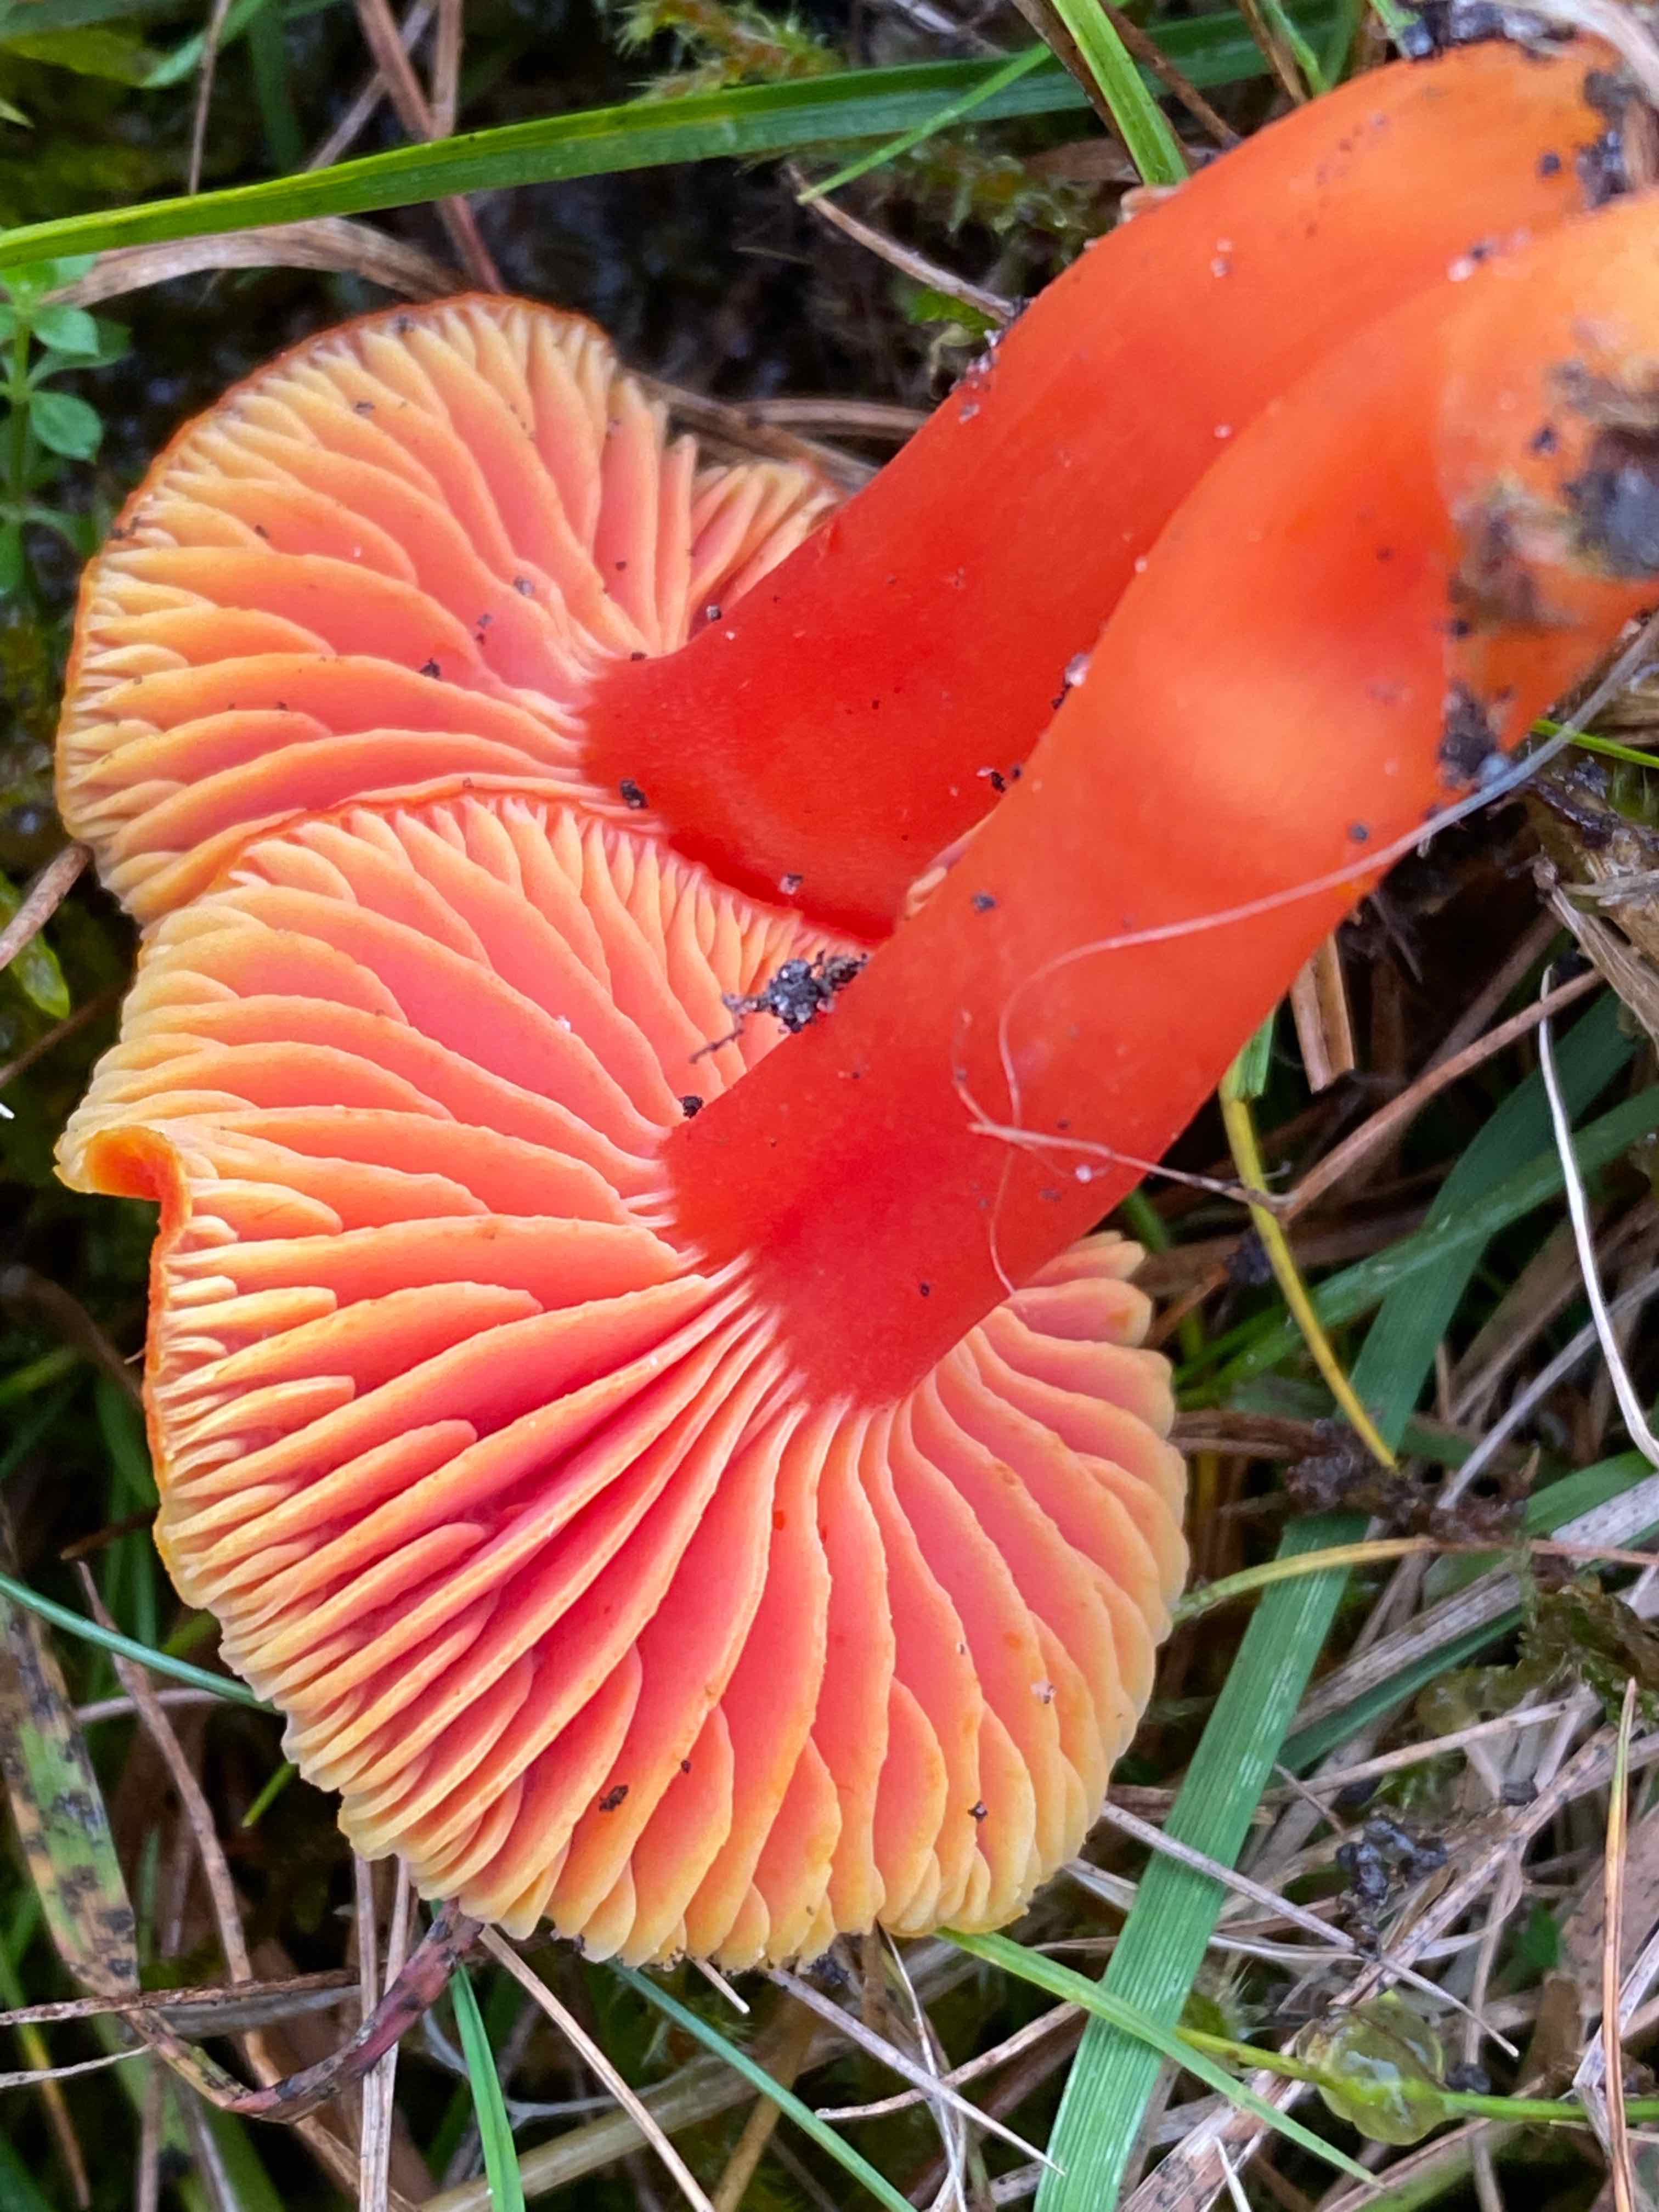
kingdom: Fungi
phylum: Basidiomycota
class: Agaricomycetes
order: Agaricales
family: Hygrophoraceae
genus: Hygrocybe
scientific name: Hygrocybe miniata
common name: mønje-vokshat
